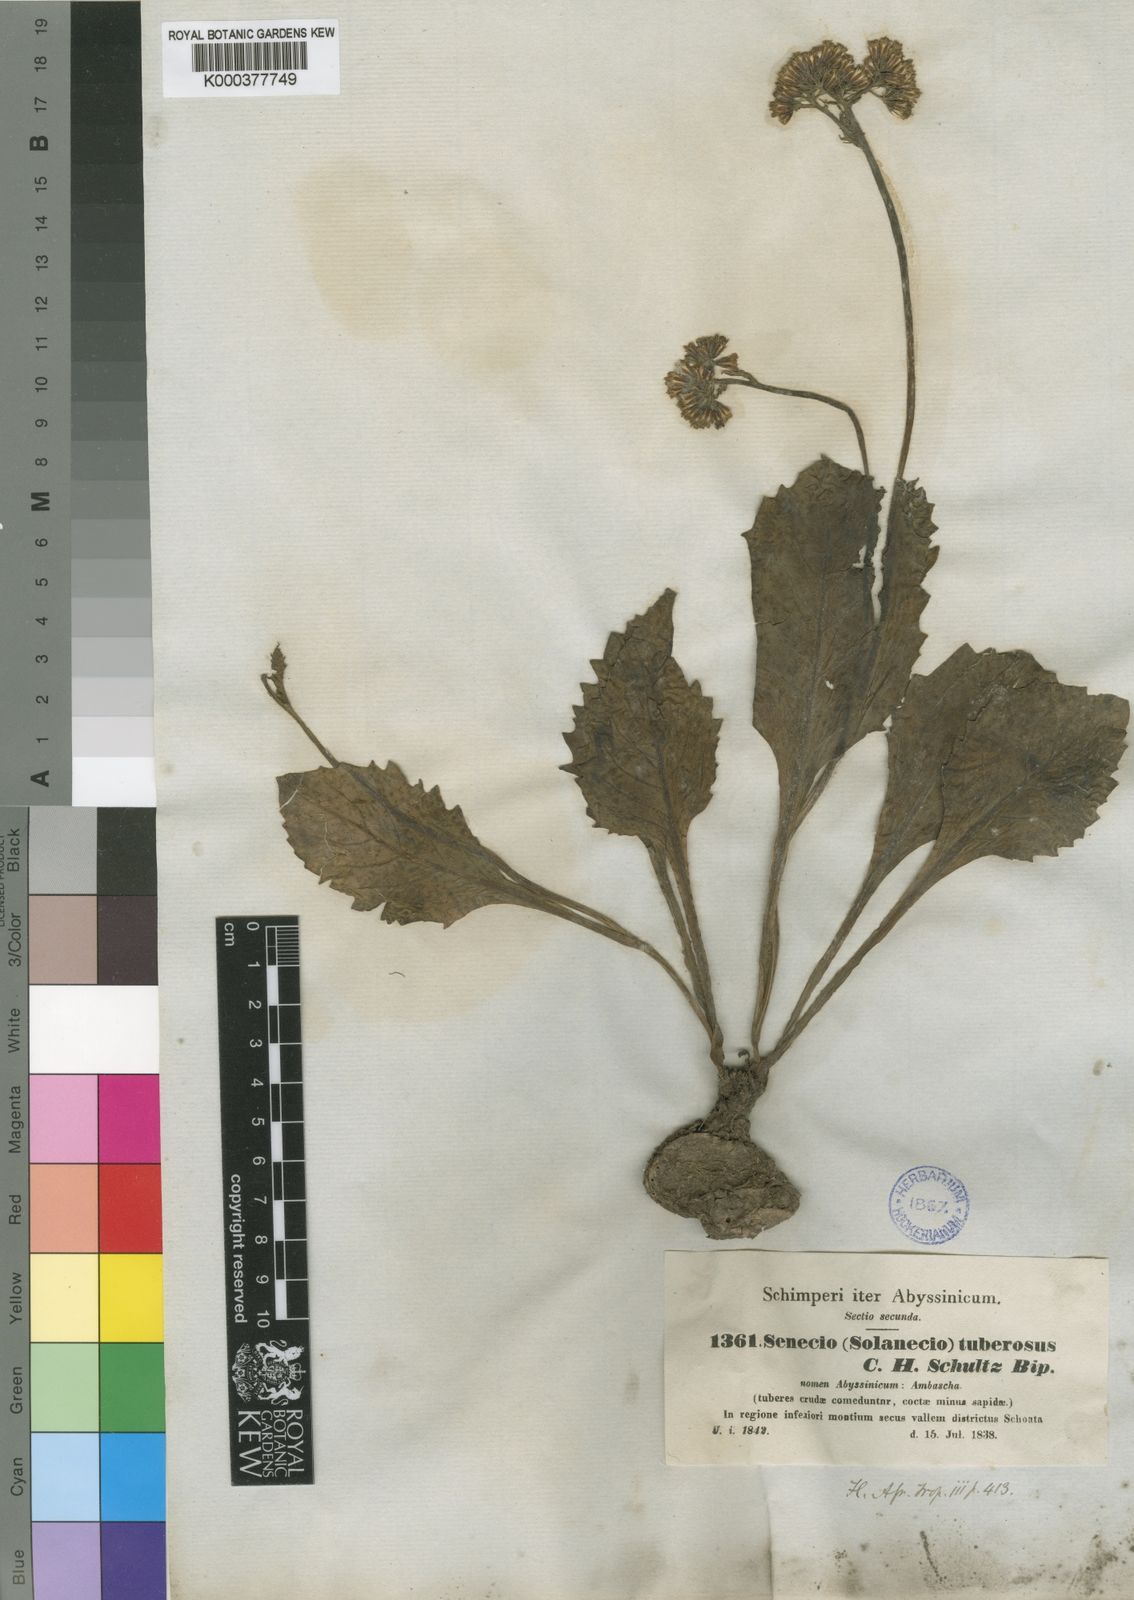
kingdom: Plantae
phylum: Tracheophyta
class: Magnoliopsida
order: Asterales
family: Asteraceae
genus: Solanecio
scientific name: Solanecio nandensis
